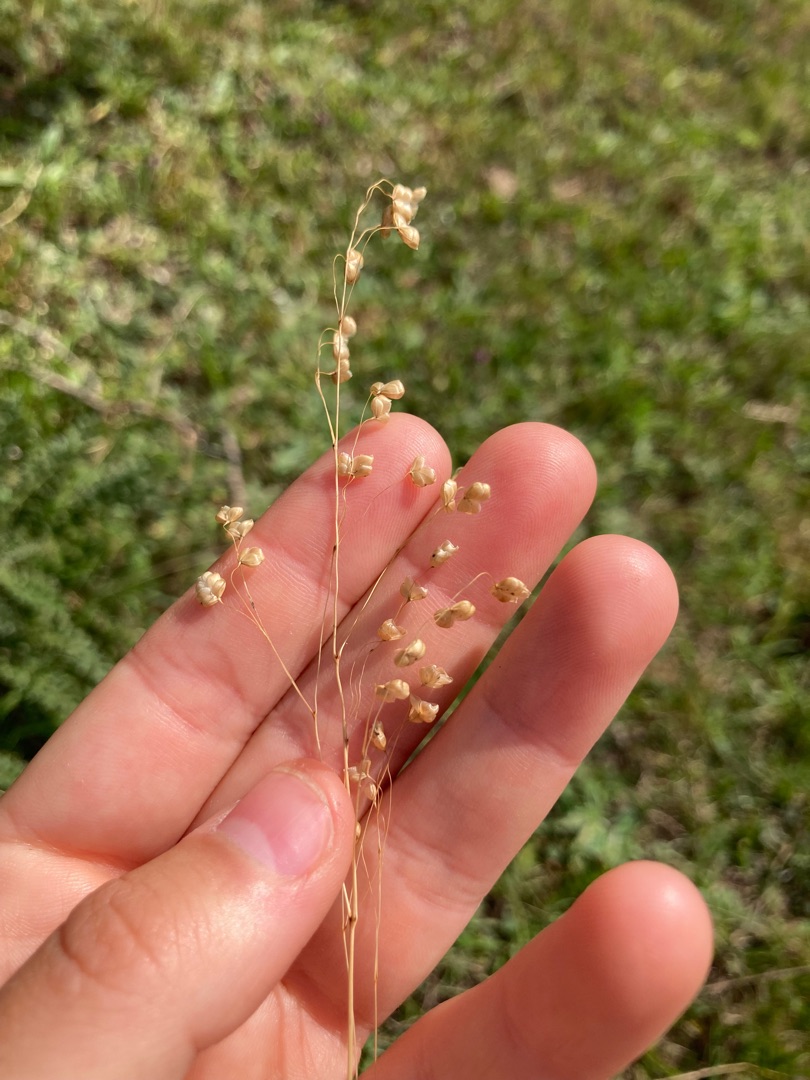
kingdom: Plantae
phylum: Tracheophyta
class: Liliopsida
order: Poales
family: Poaceae
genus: Briza
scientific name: Briza media
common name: Hjertegræs
